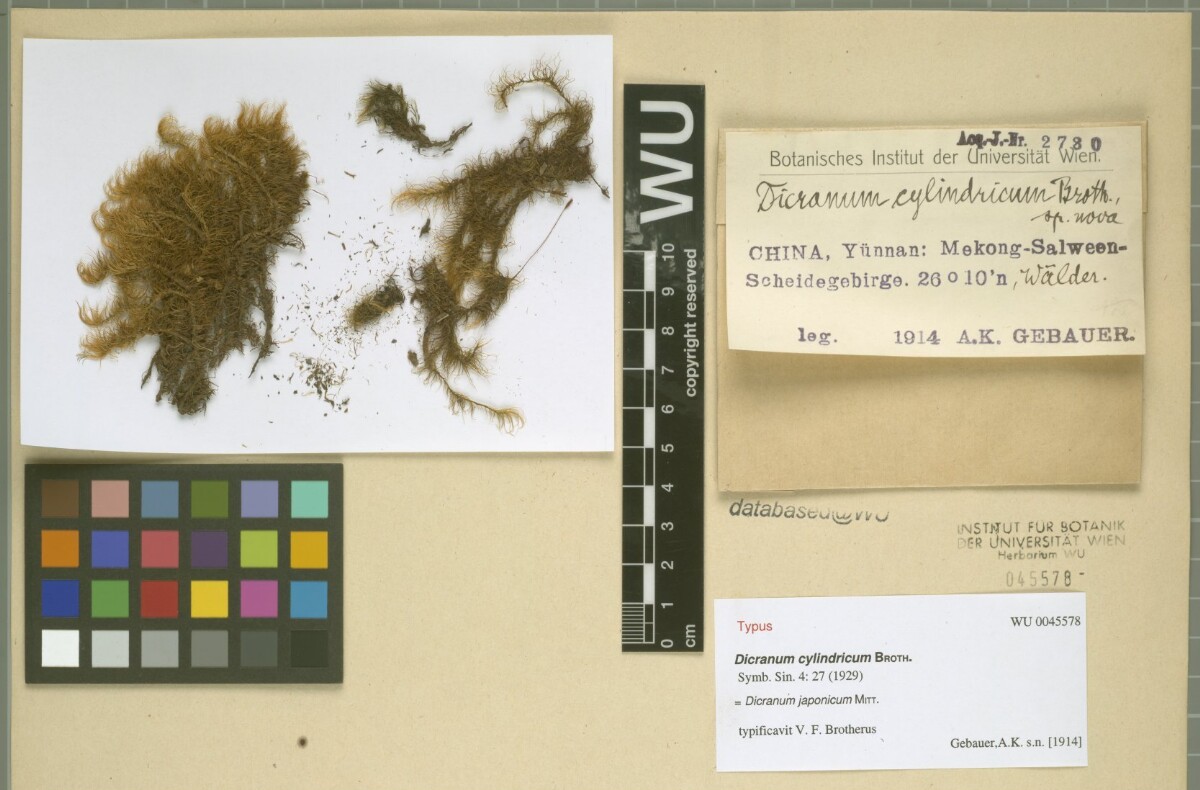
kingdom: Plantae
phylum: Bryophyta
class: Bryopsida
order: Dicranales
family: Dicranaceae
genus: Dicranum
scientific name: Dicranum japonicum
